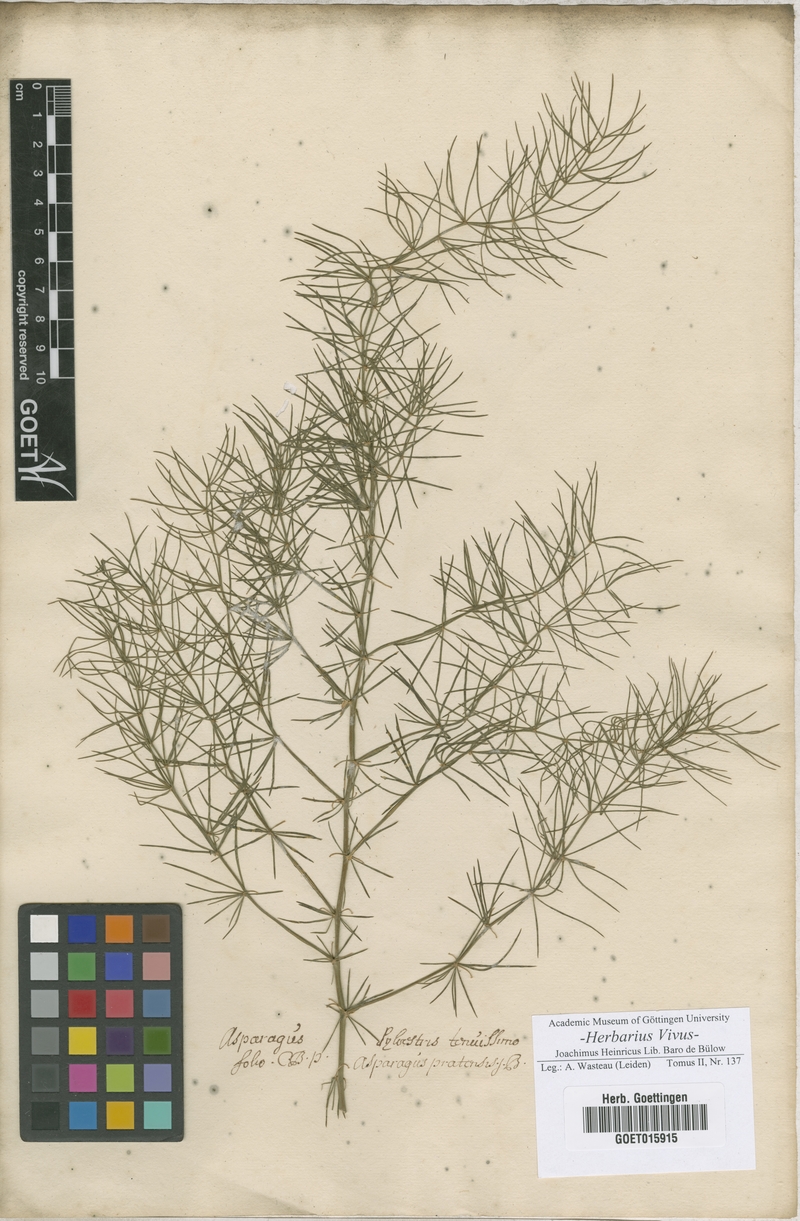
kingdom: Plantae
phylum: Tracheophyta
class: Liliopsida
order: Asparagales
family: Asparagaceae
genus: Asparagus
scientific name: Asparagus officinalis
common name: Garden asparagus
